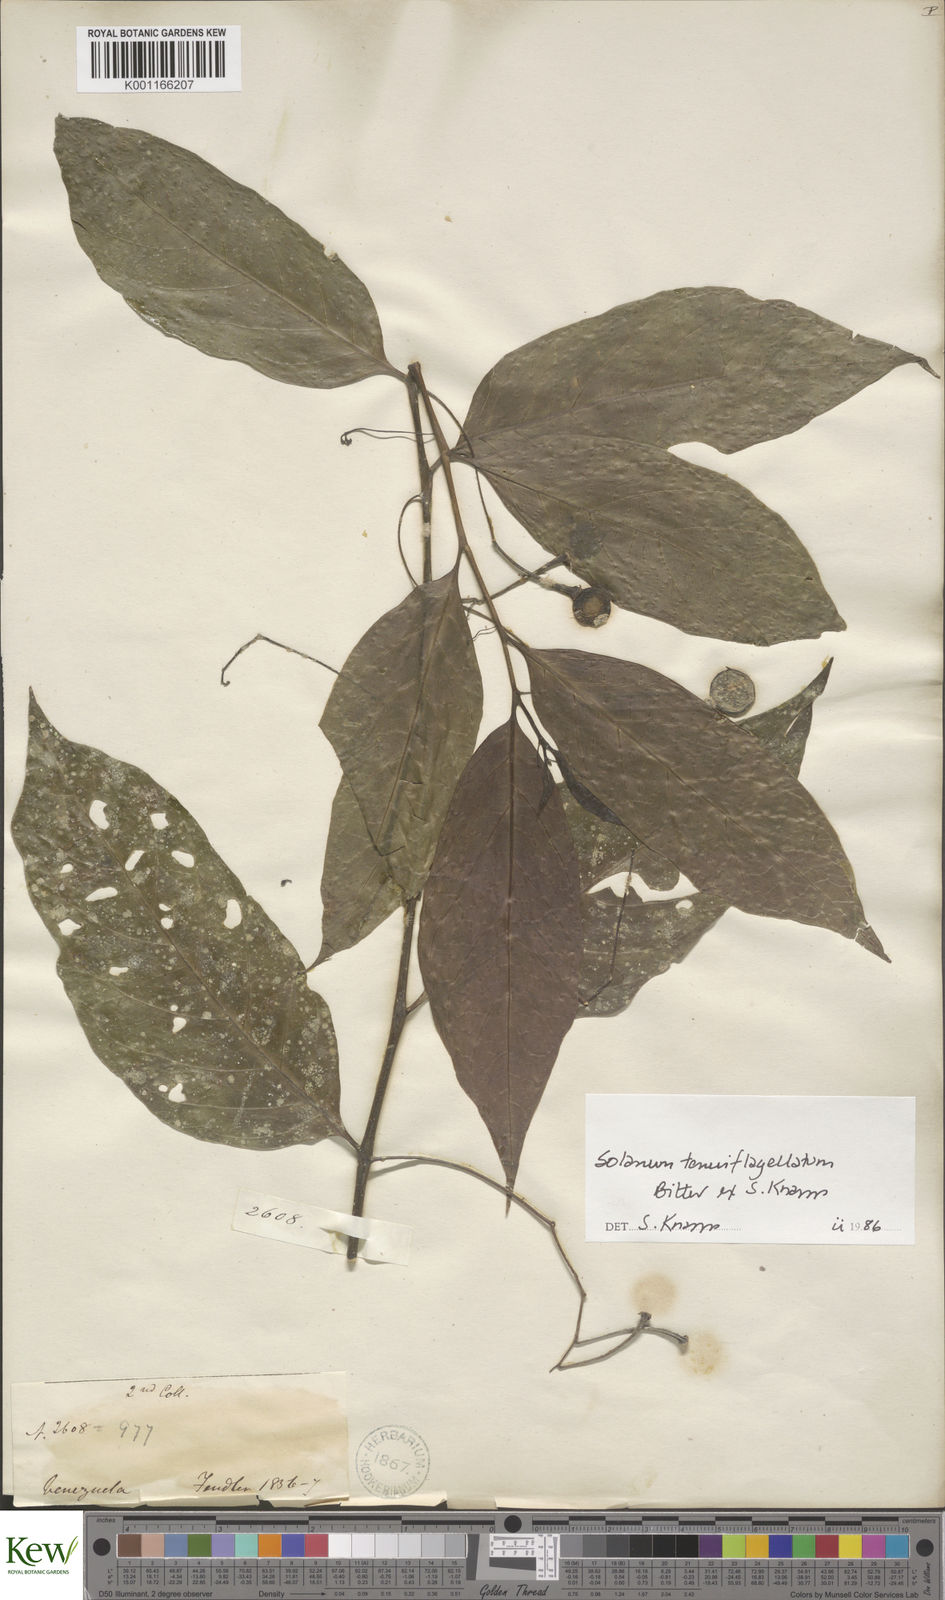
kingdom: Plantae
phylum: Tracheophyta
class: Magnoliopsida
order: Solanales
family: Solanaceae
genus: Solanum
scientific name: Solanum tenuiflagellatum
